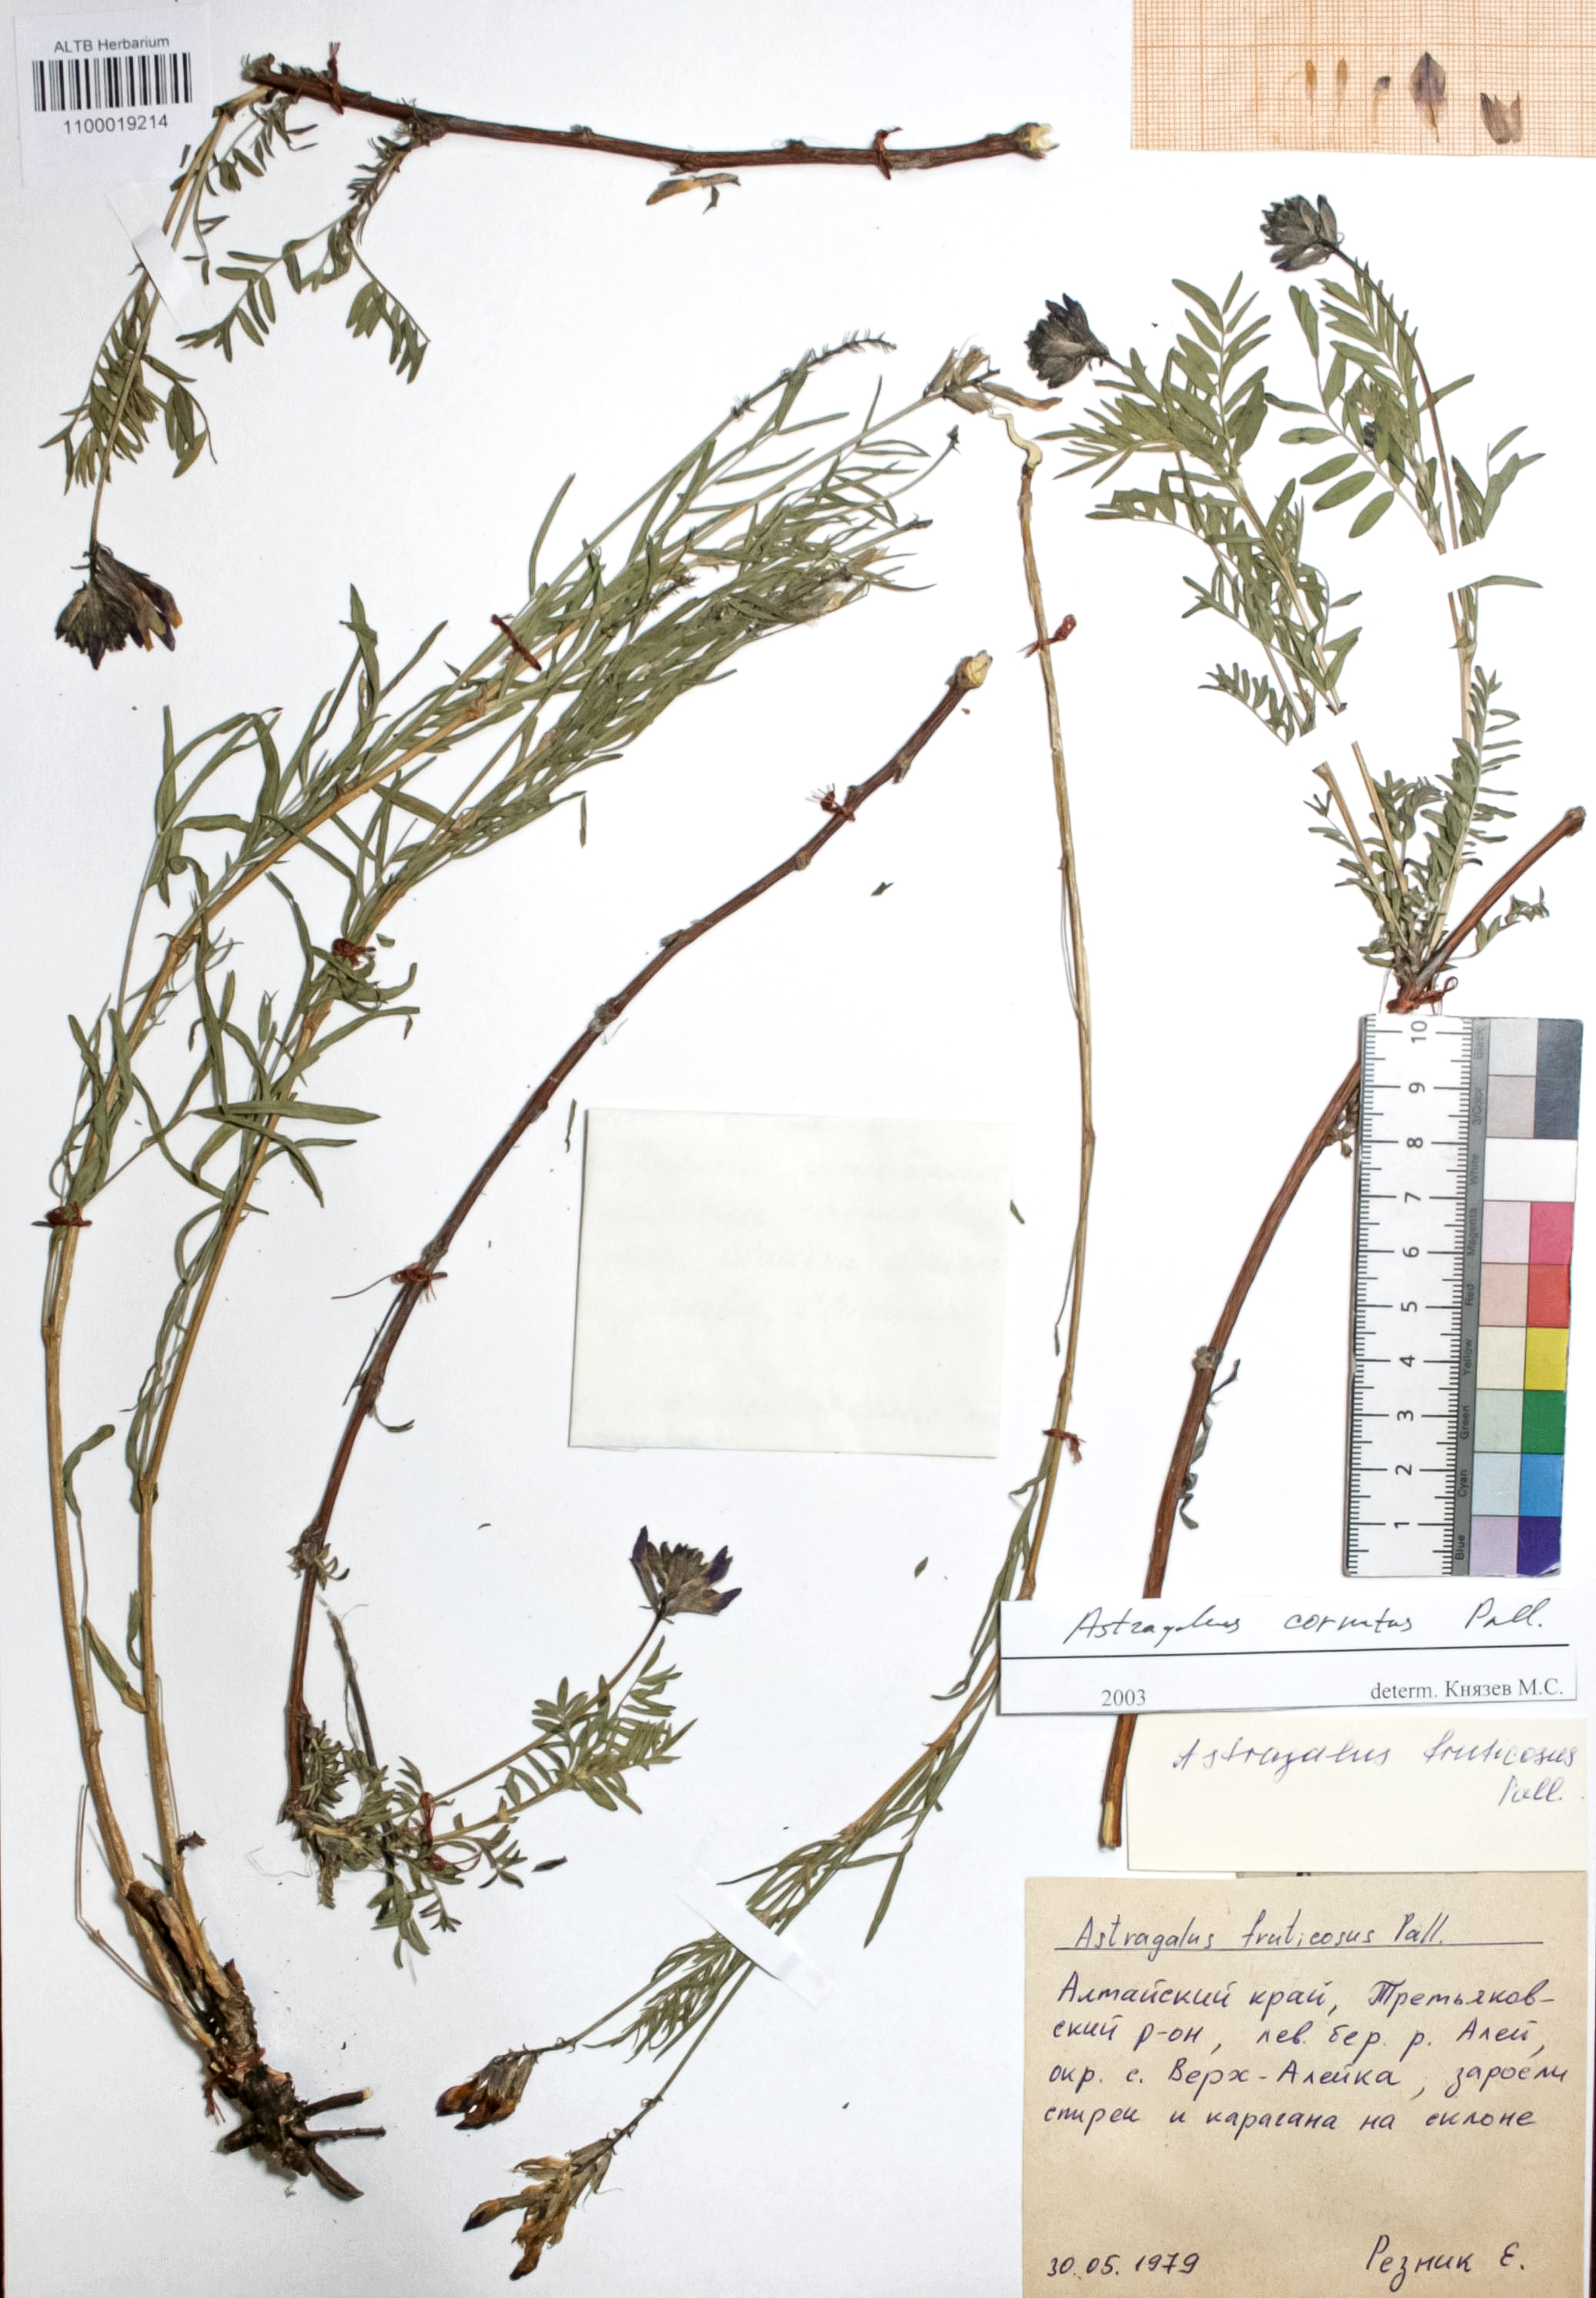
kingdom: Plantae
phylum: Tracheophyta
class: Magnoliopsida
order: Fabales
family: Fabaceae
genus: Astragalus
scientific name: Astragalus cornutus
